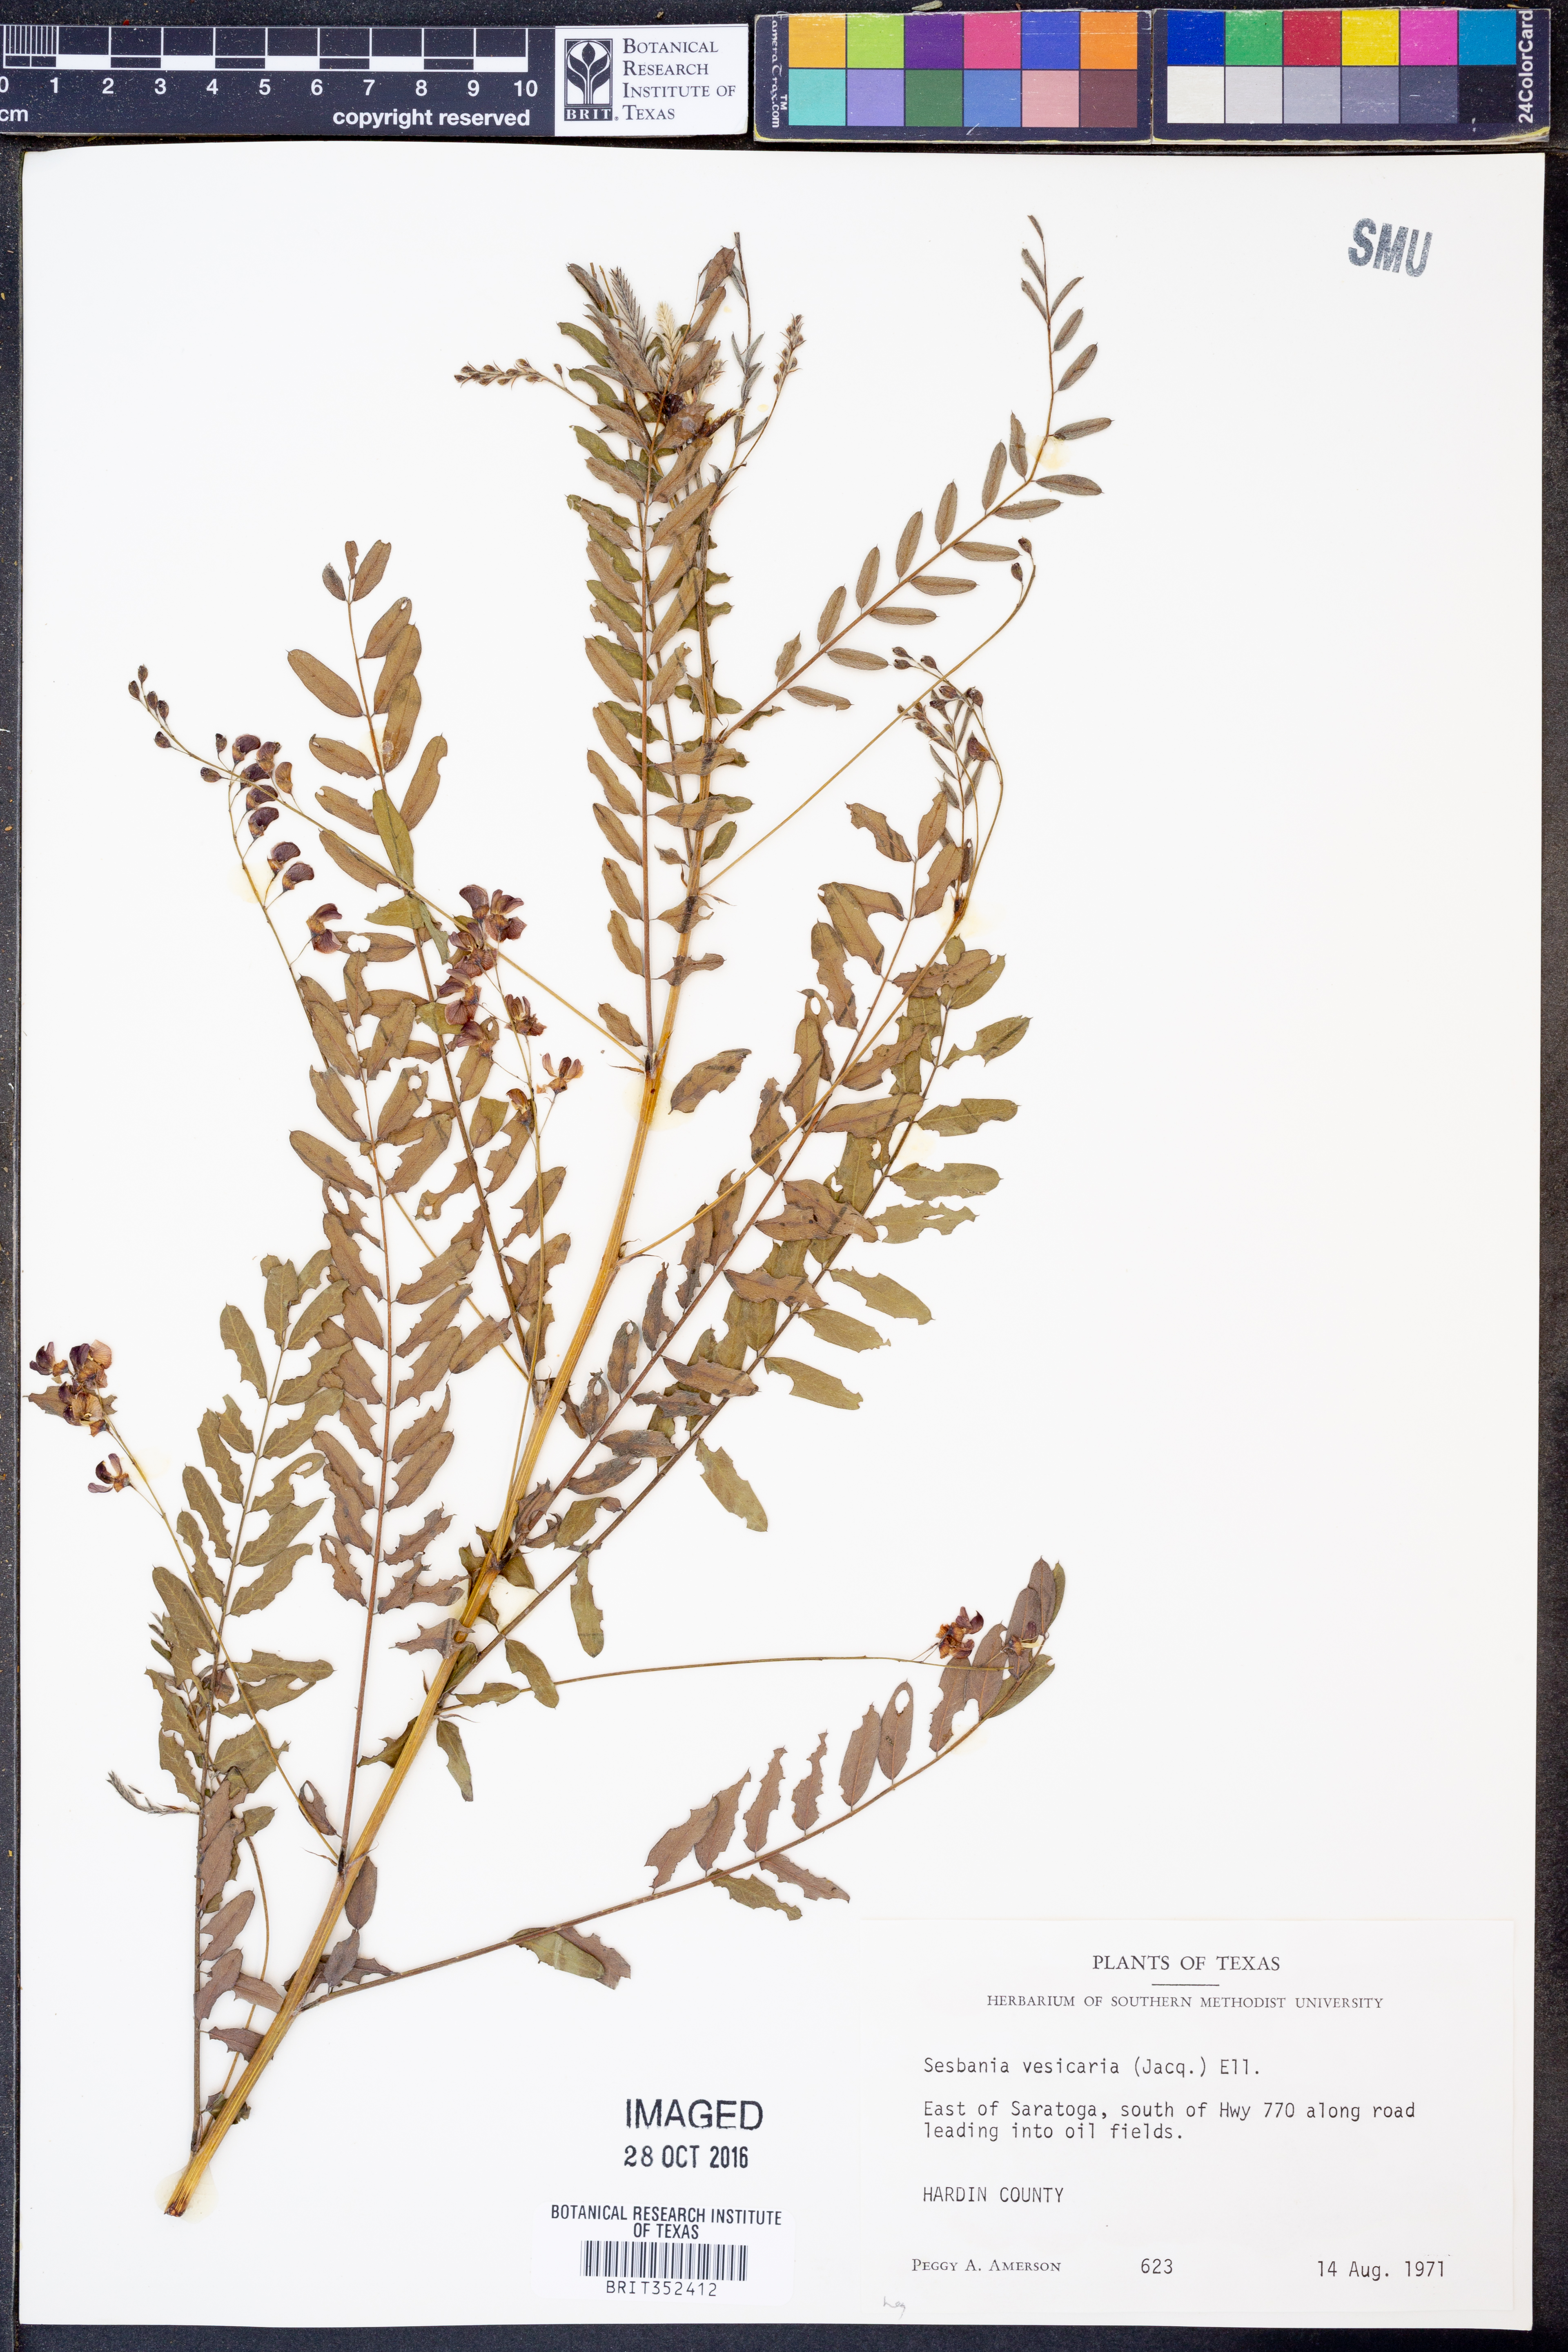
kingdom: Plantae
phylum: Tracheophyta
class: Magnoliopsida
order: Fabales
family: Fabaceae
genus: Sesbania
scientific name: Sesbania vesicaria
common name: Bagpod
